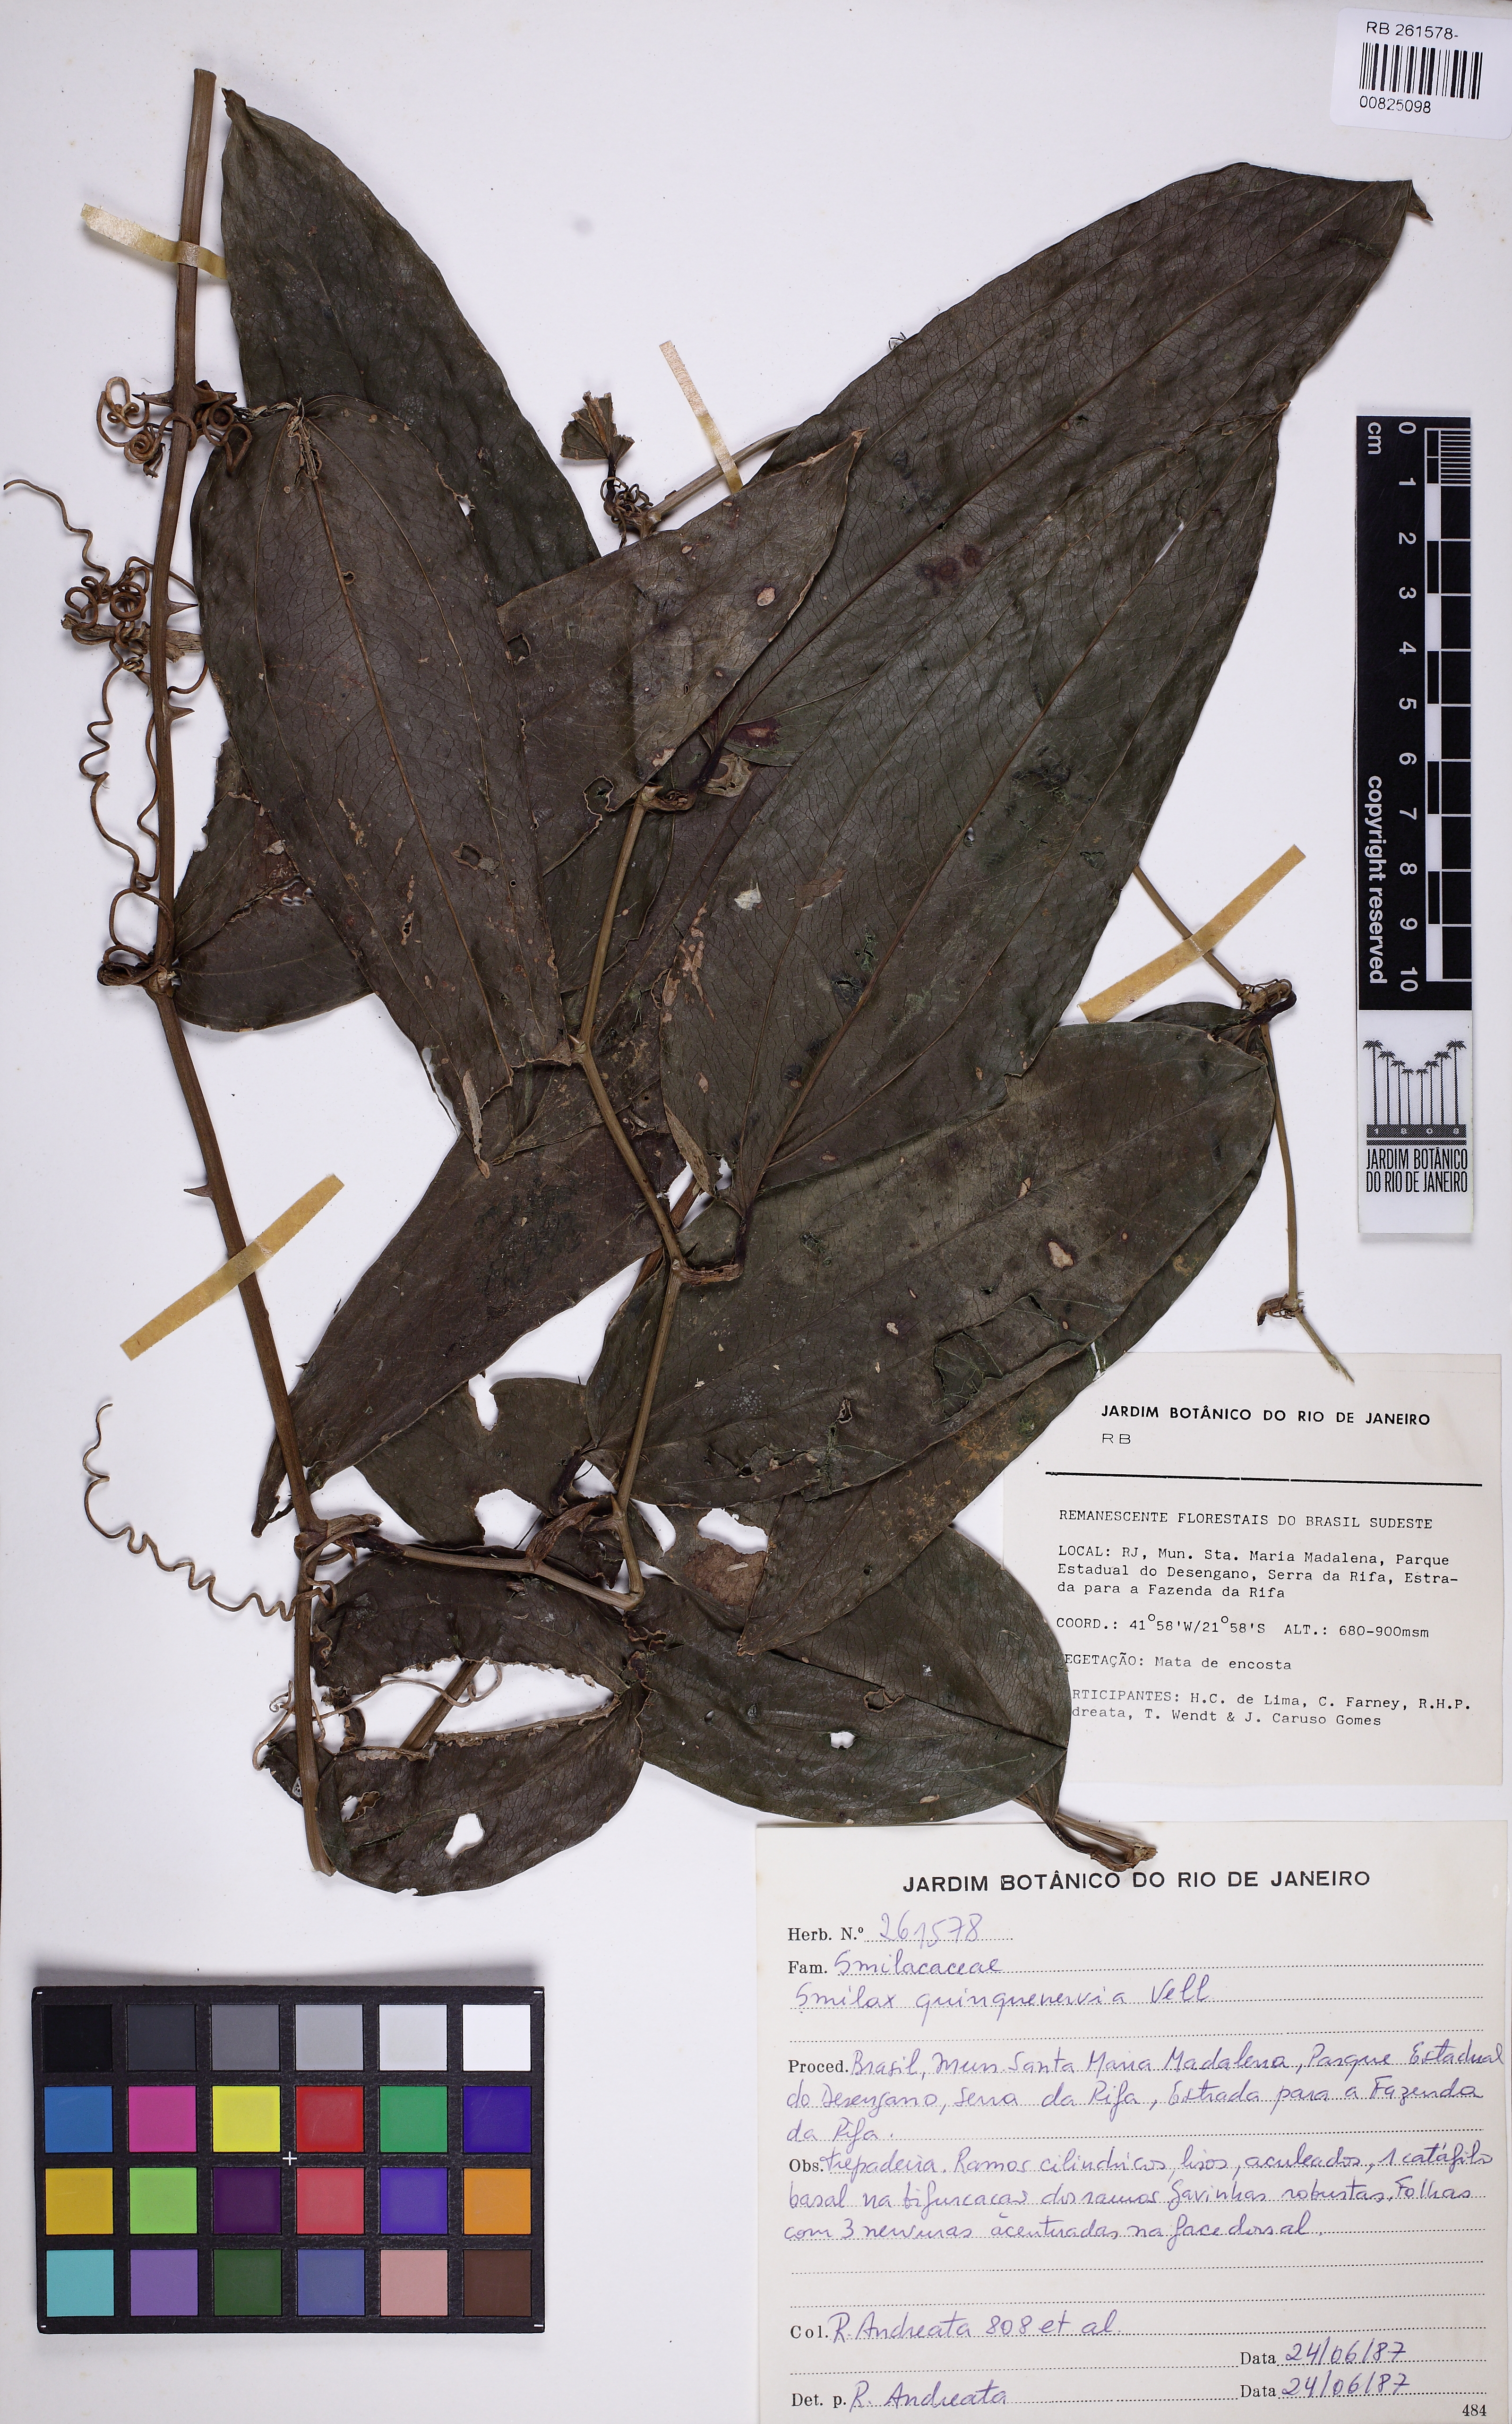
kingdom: Plantae
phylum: Tracheophyta
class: Liliopsida
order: Liliales
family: Smilacaceae
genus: Smilax
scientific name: Smilax quinquenervia
